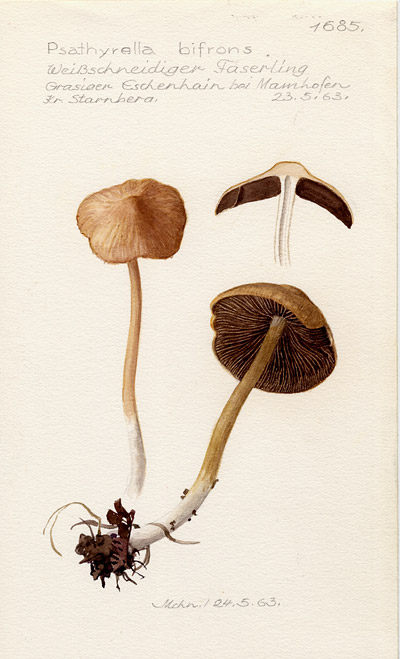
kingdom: Fungi
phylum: Basidiomycota
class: Agaricomycetes
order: Agaricales
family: Psathyrellaceae
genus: Psathyrella
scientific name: Psathyrella bifrons
